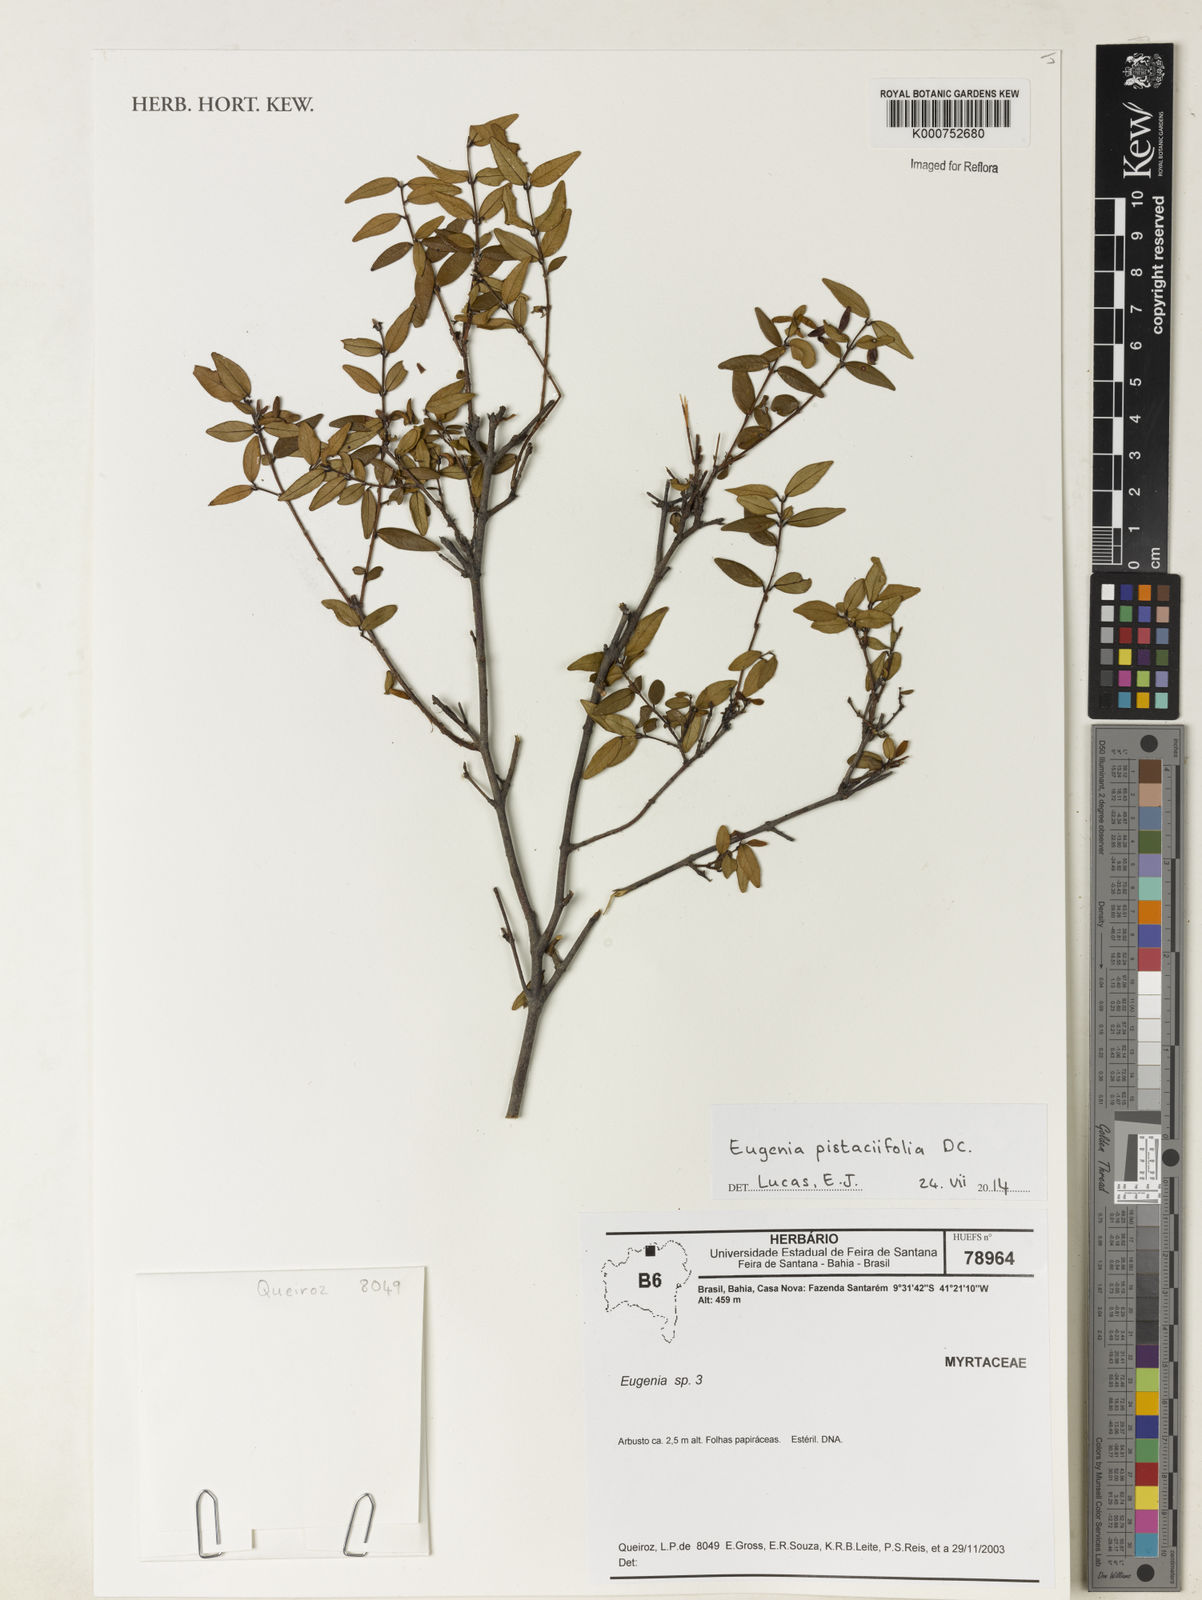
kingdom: Plantae
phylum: Tracheophyta
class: Magnoliopsida
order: Myrtales
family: Myrtaceae
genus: Eugenia
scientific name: Eugenia pistaciifolia
